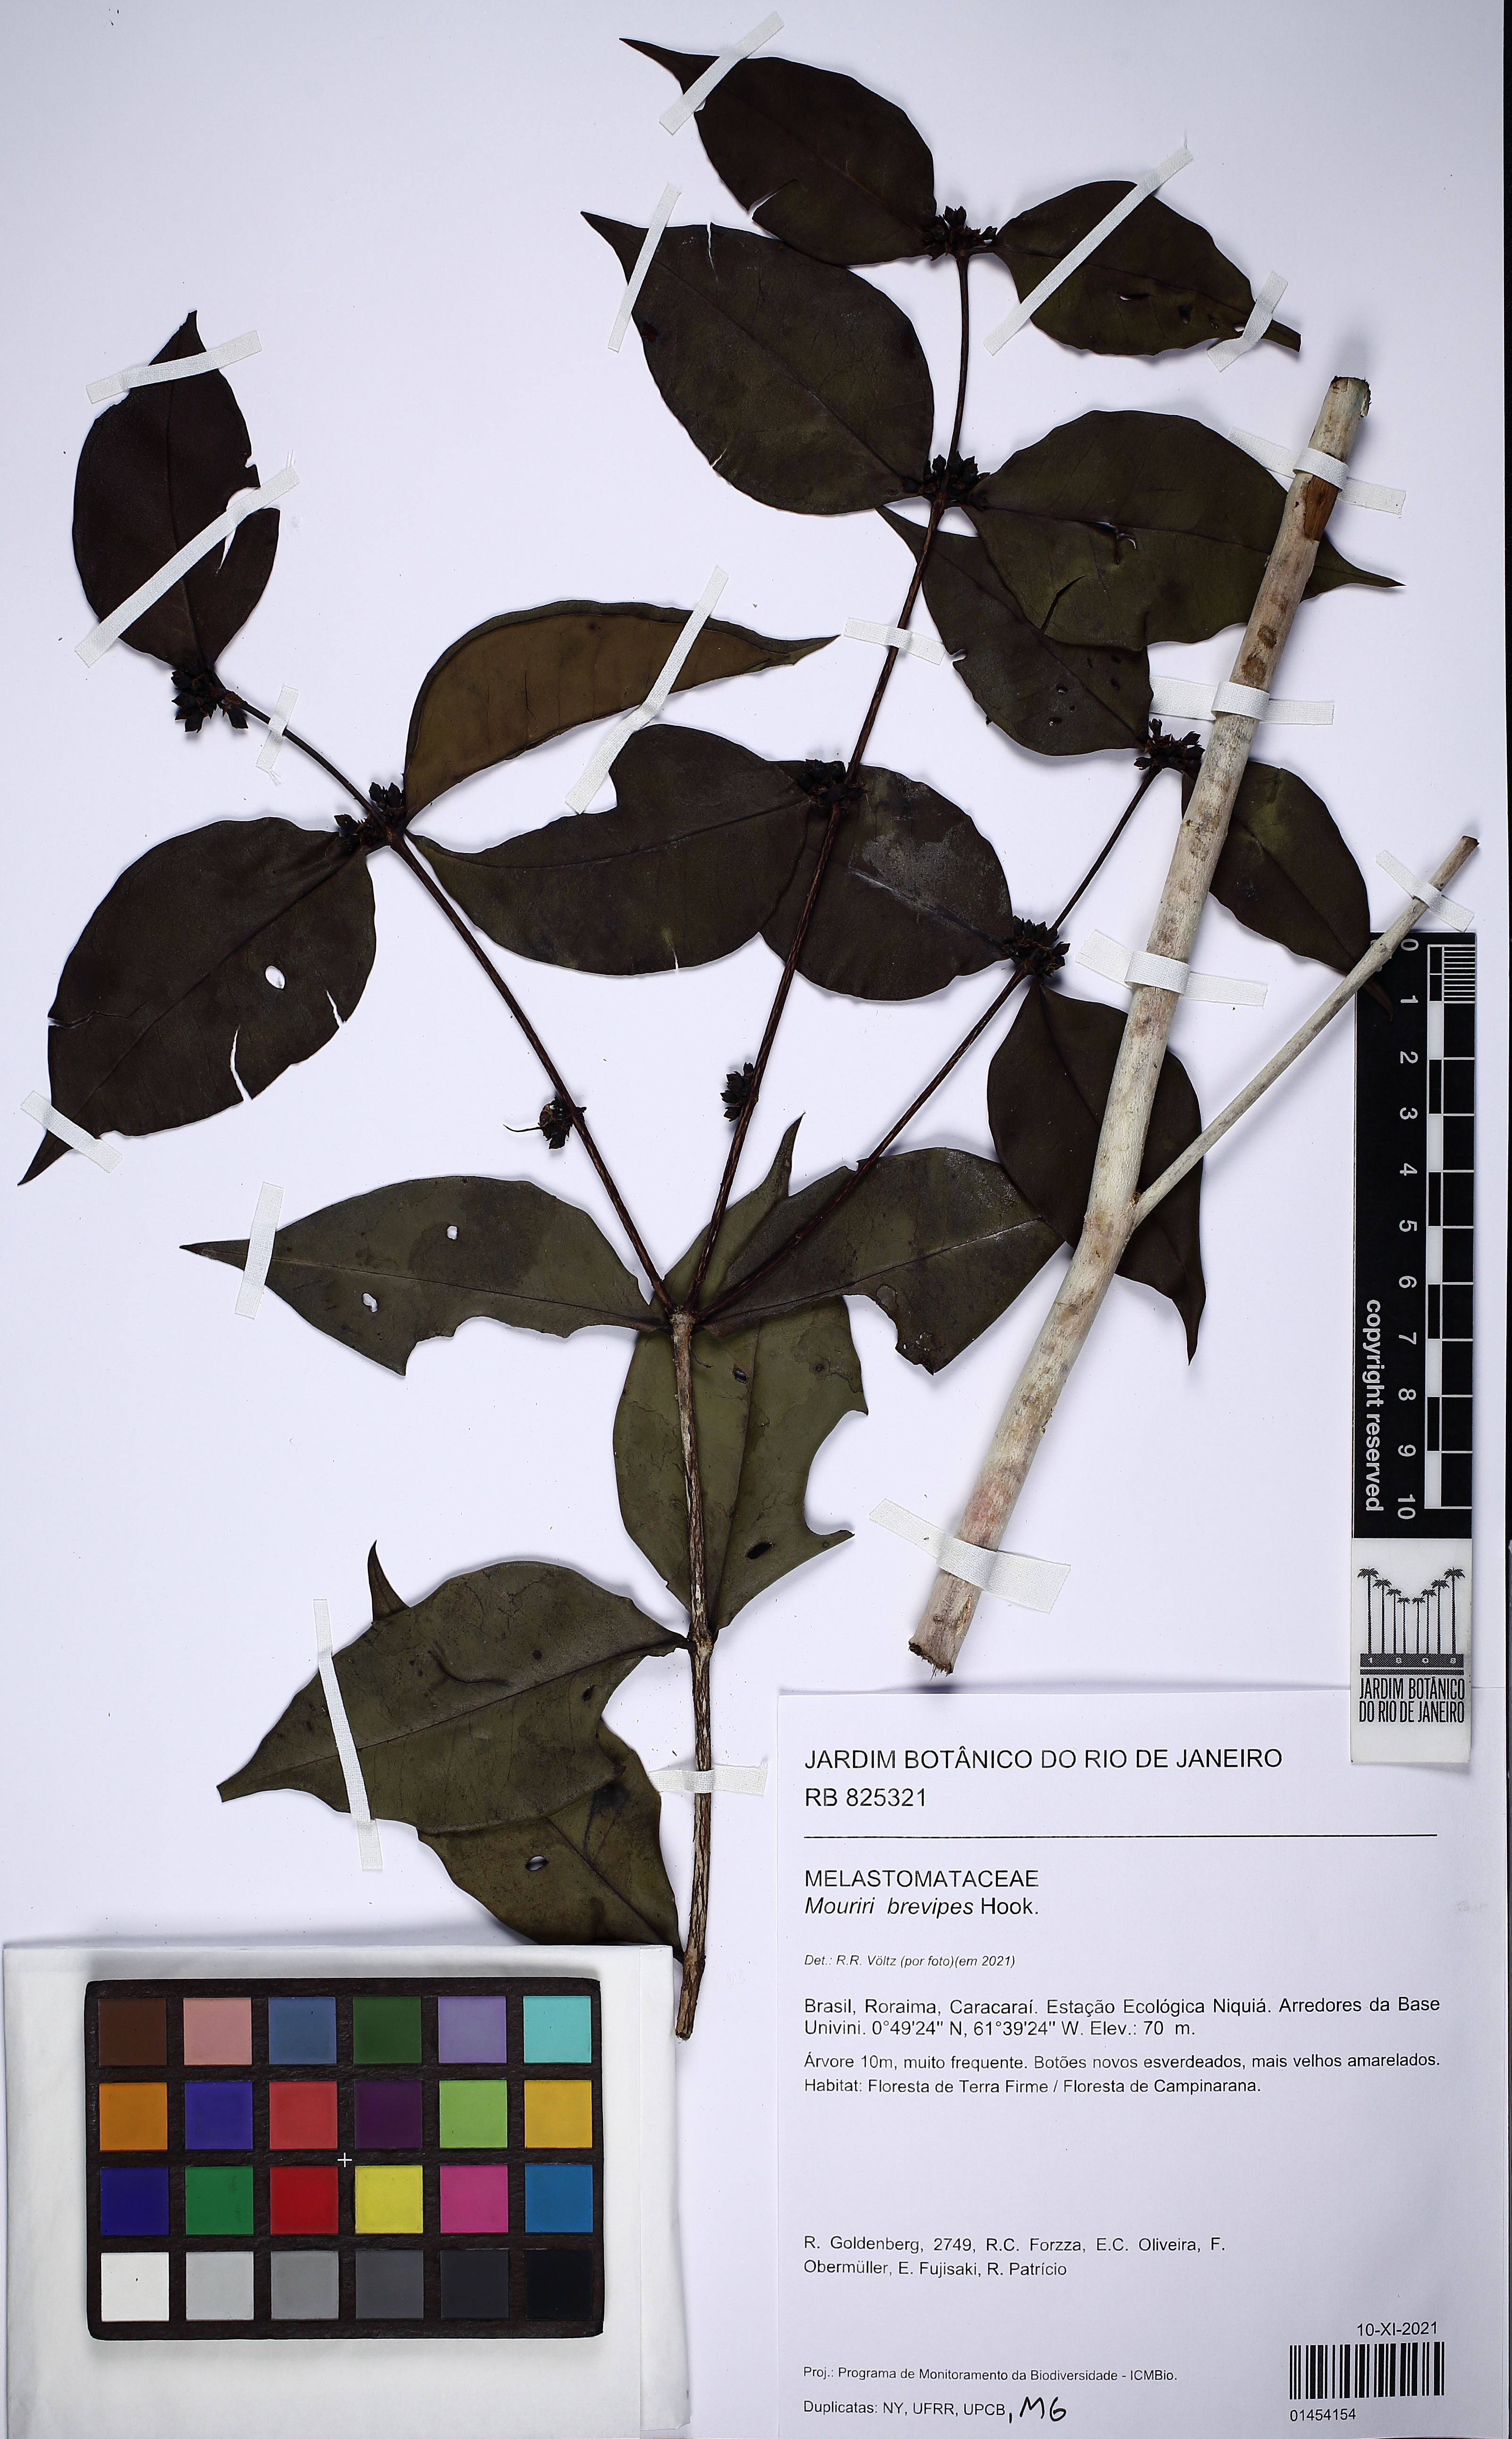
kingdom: Plantae
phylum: Tracheophyta
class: Magnoliopsida
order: Myrtales
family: Melastomataceae
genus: Mouriri
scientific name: Mouriri brevipes
